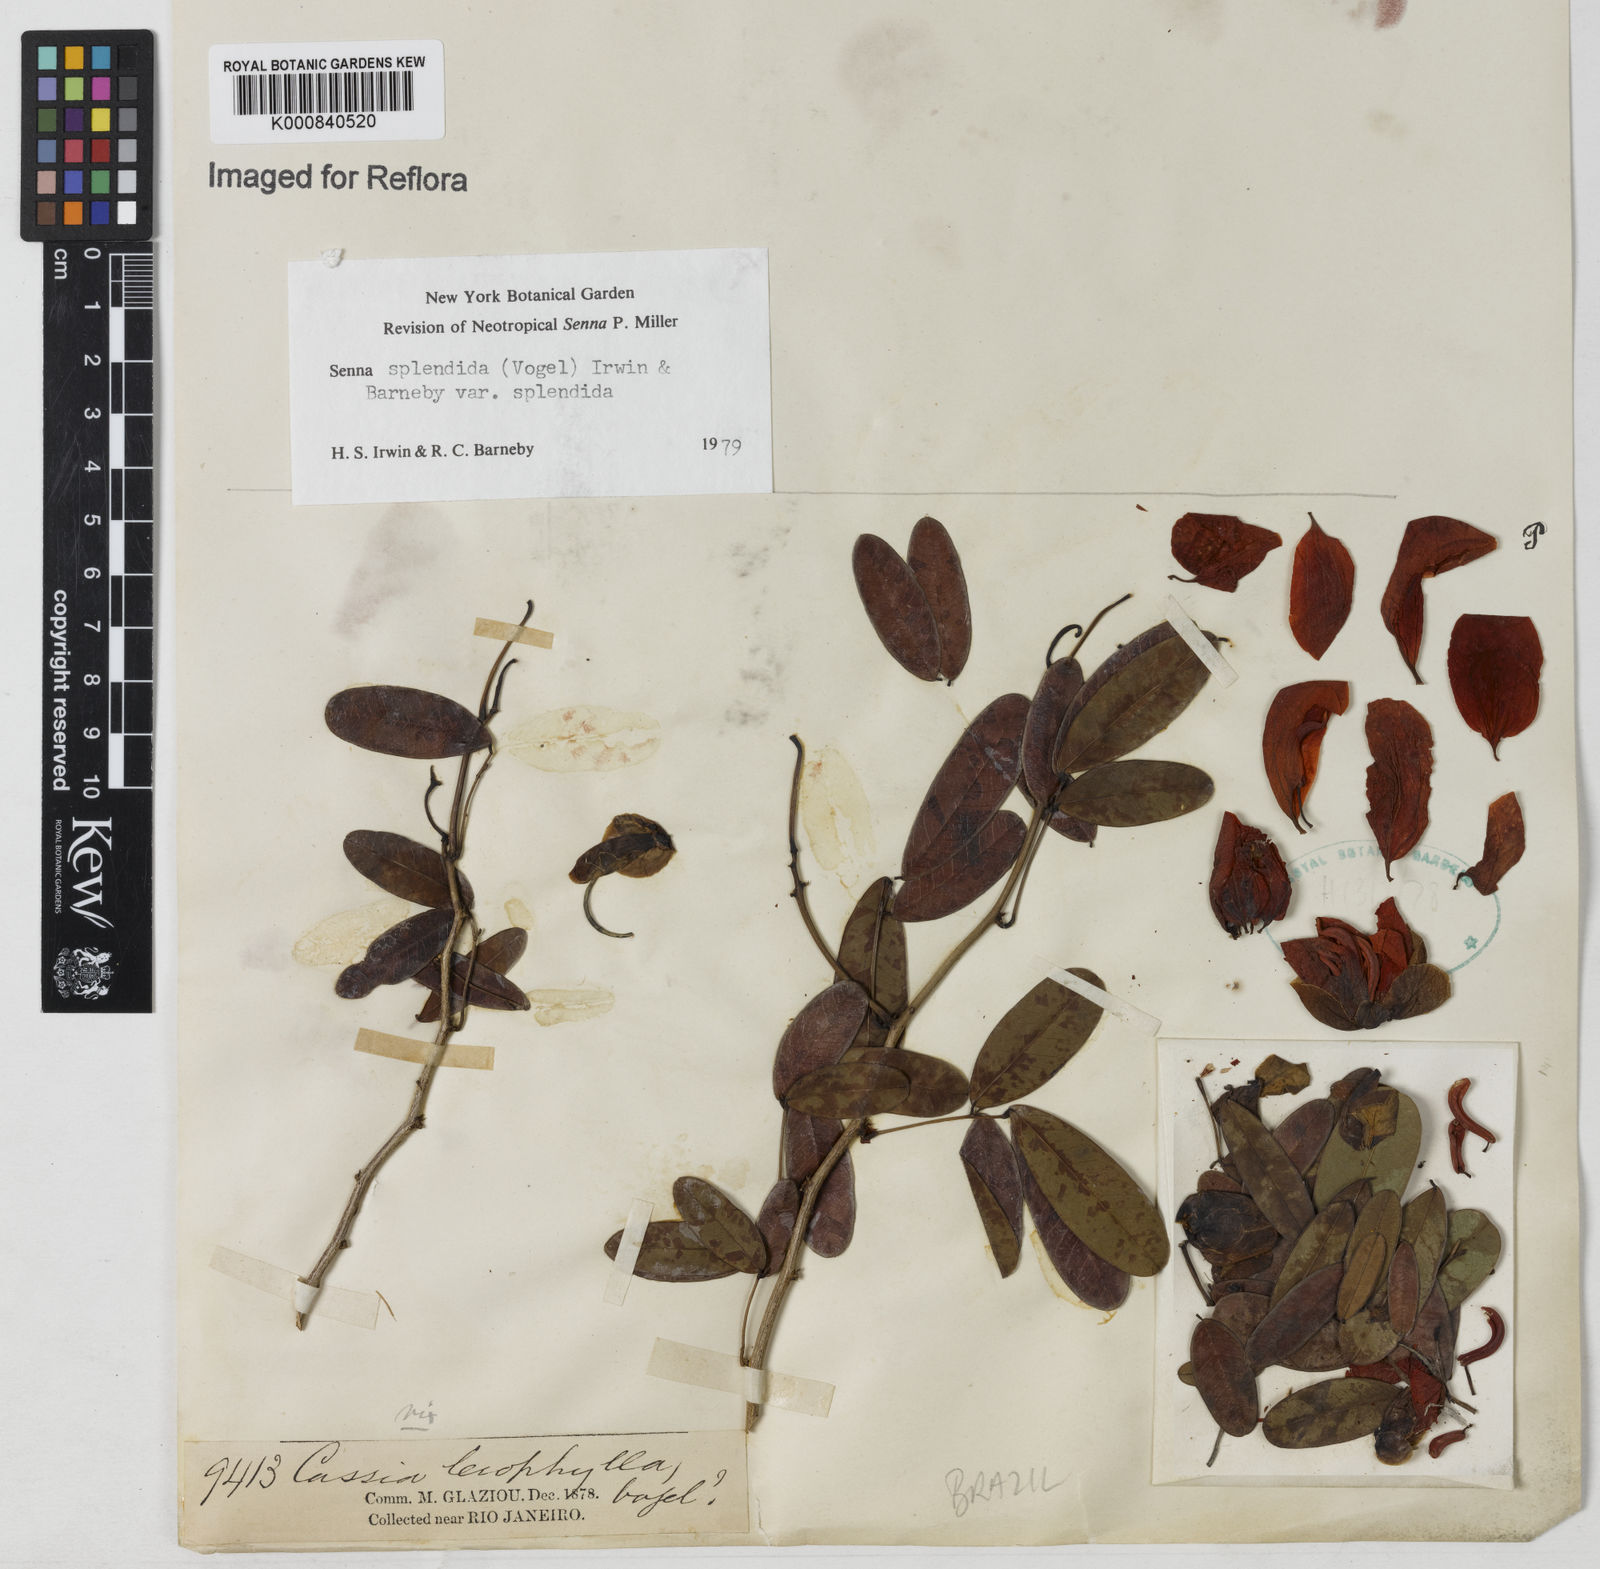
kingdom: Plantae
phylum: Tracheophyta
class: Magnoliopsida
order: Fabales
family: Fabaceae
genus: Senna
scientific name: Senna splendida
